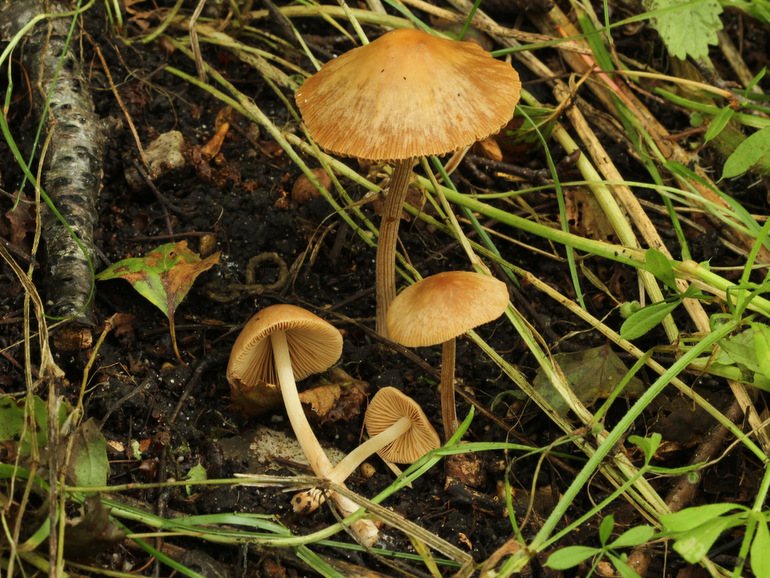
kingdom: Fungi
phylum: Basidiomycota
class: Agaricomycetes
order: Agaricales
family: Bolbitiaceae
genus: Conocybe
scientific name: Conocybe macrocephala
